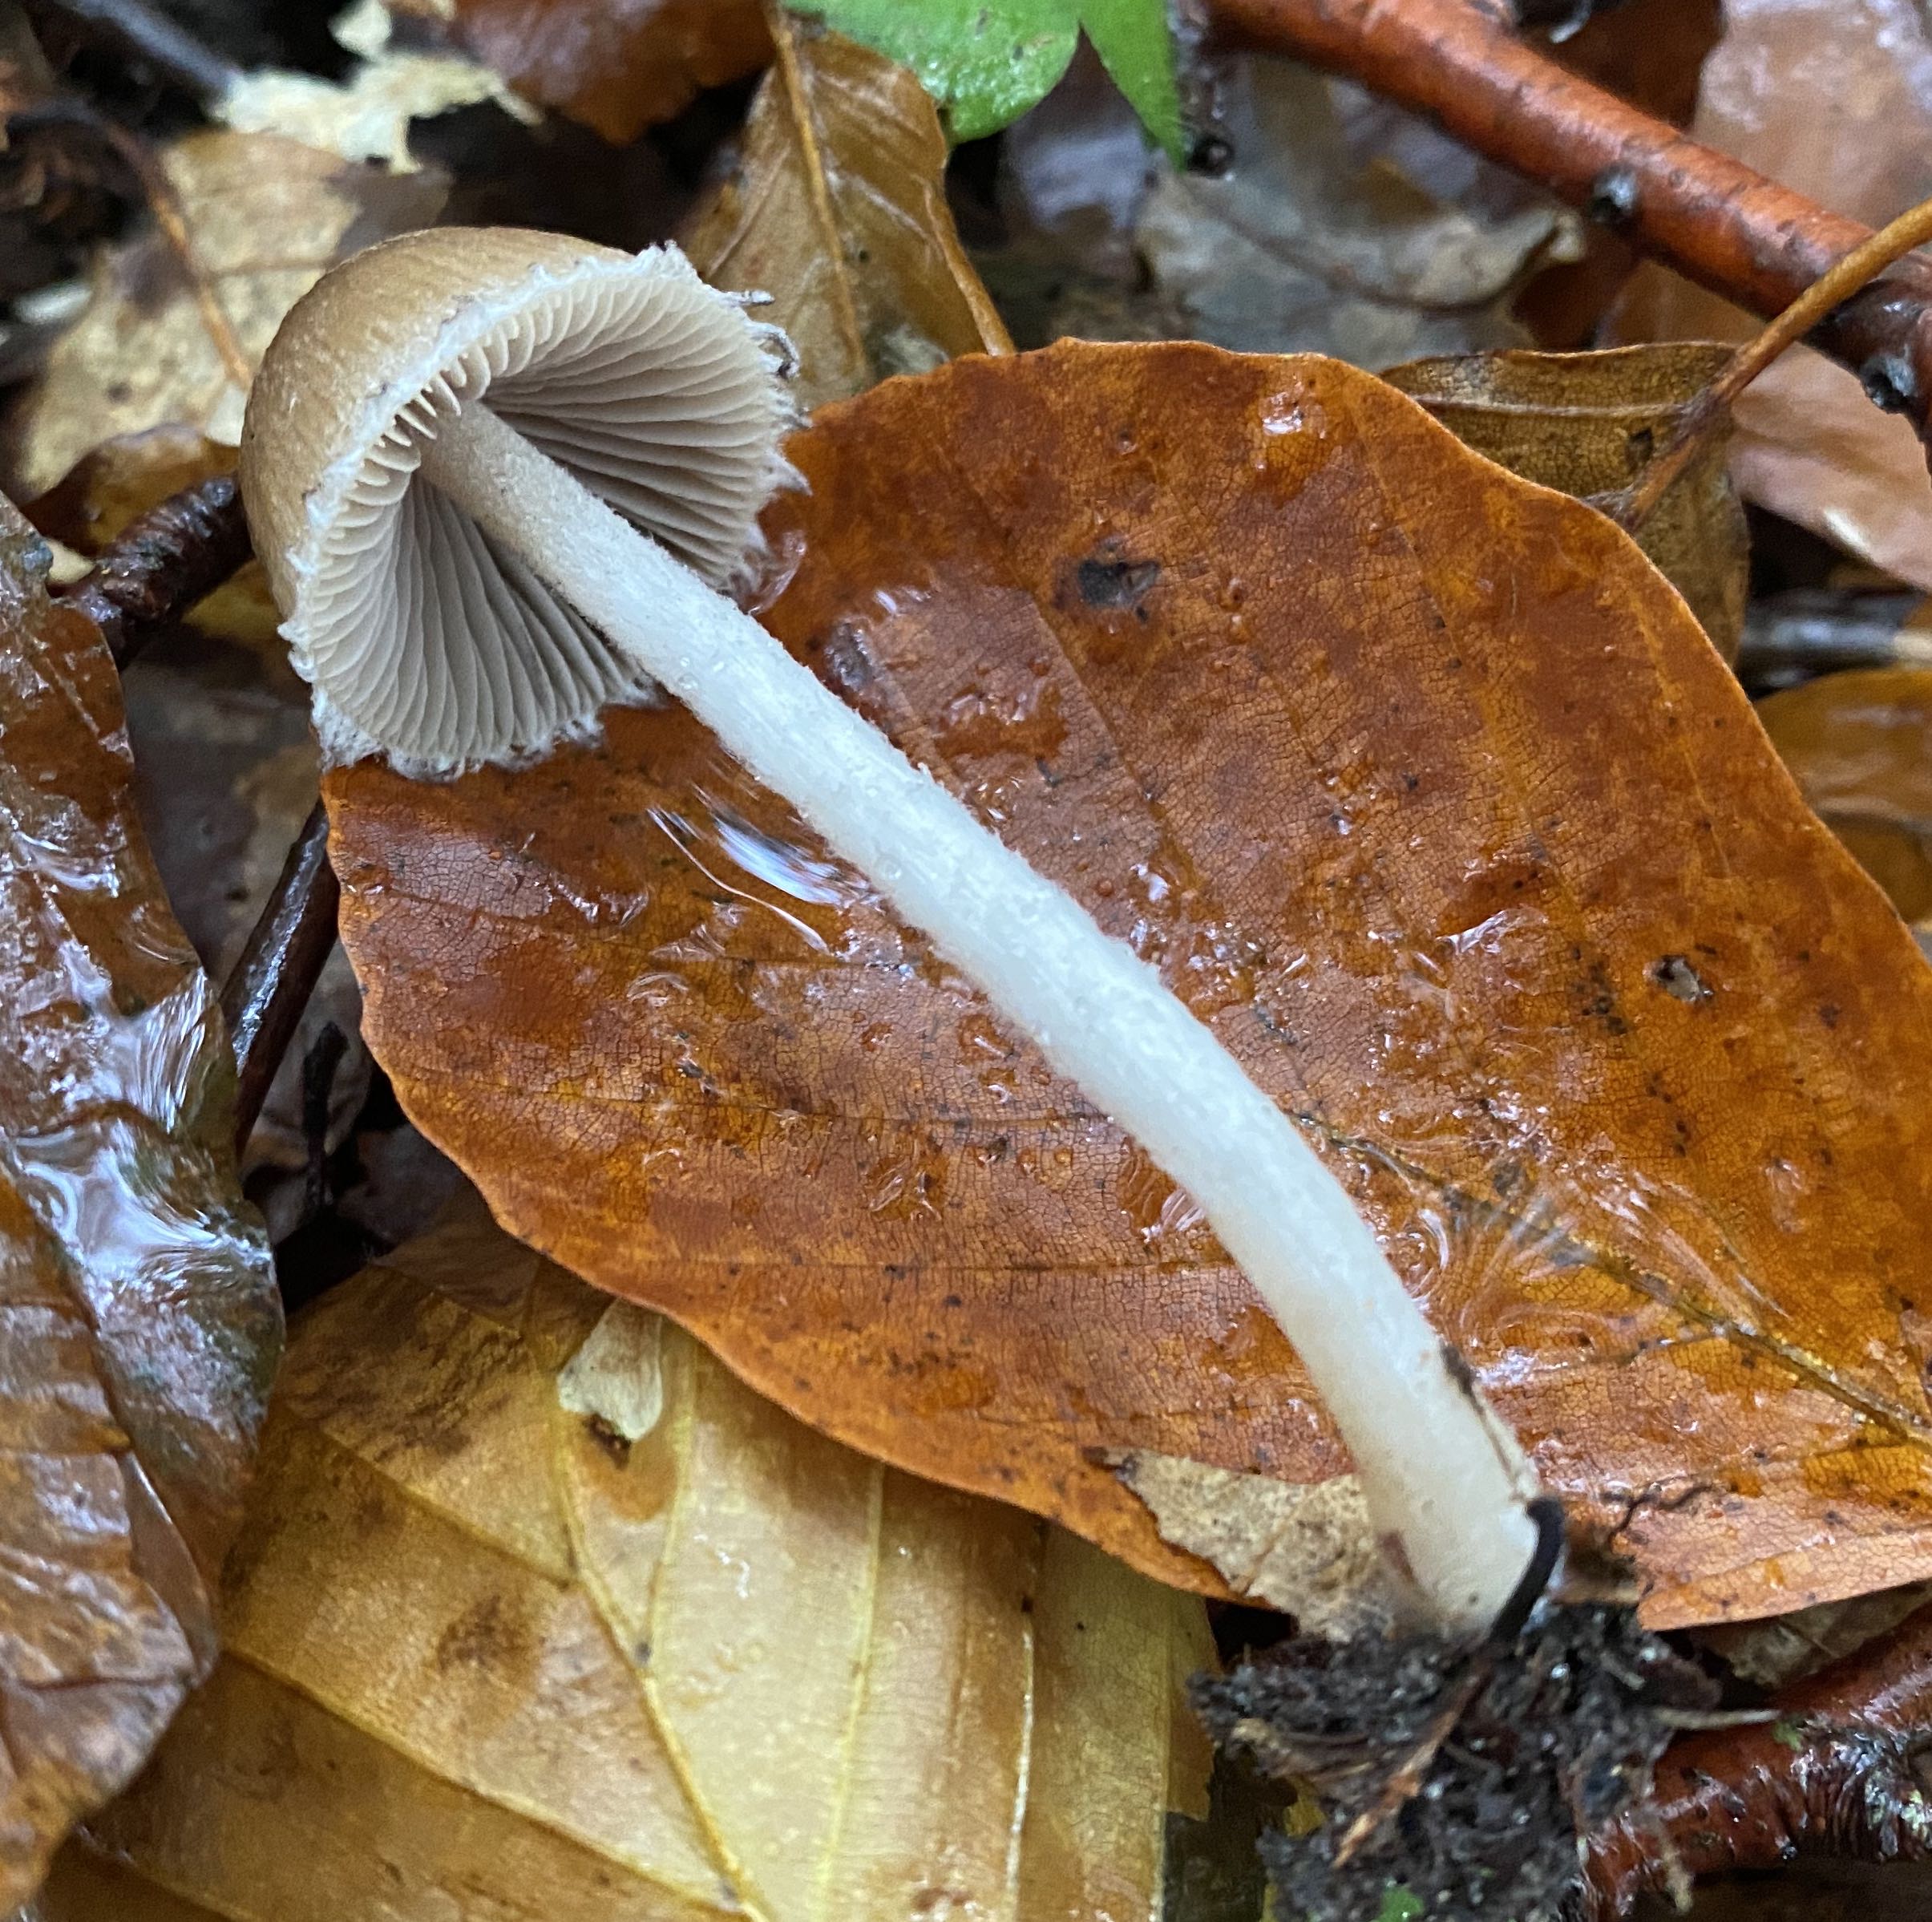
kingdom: Fungi
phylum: Basidiomycota
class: Agaricomycetes
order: Agaricales
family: Psathyrellaceae
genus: Psathyrella
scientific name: Psathyrella
